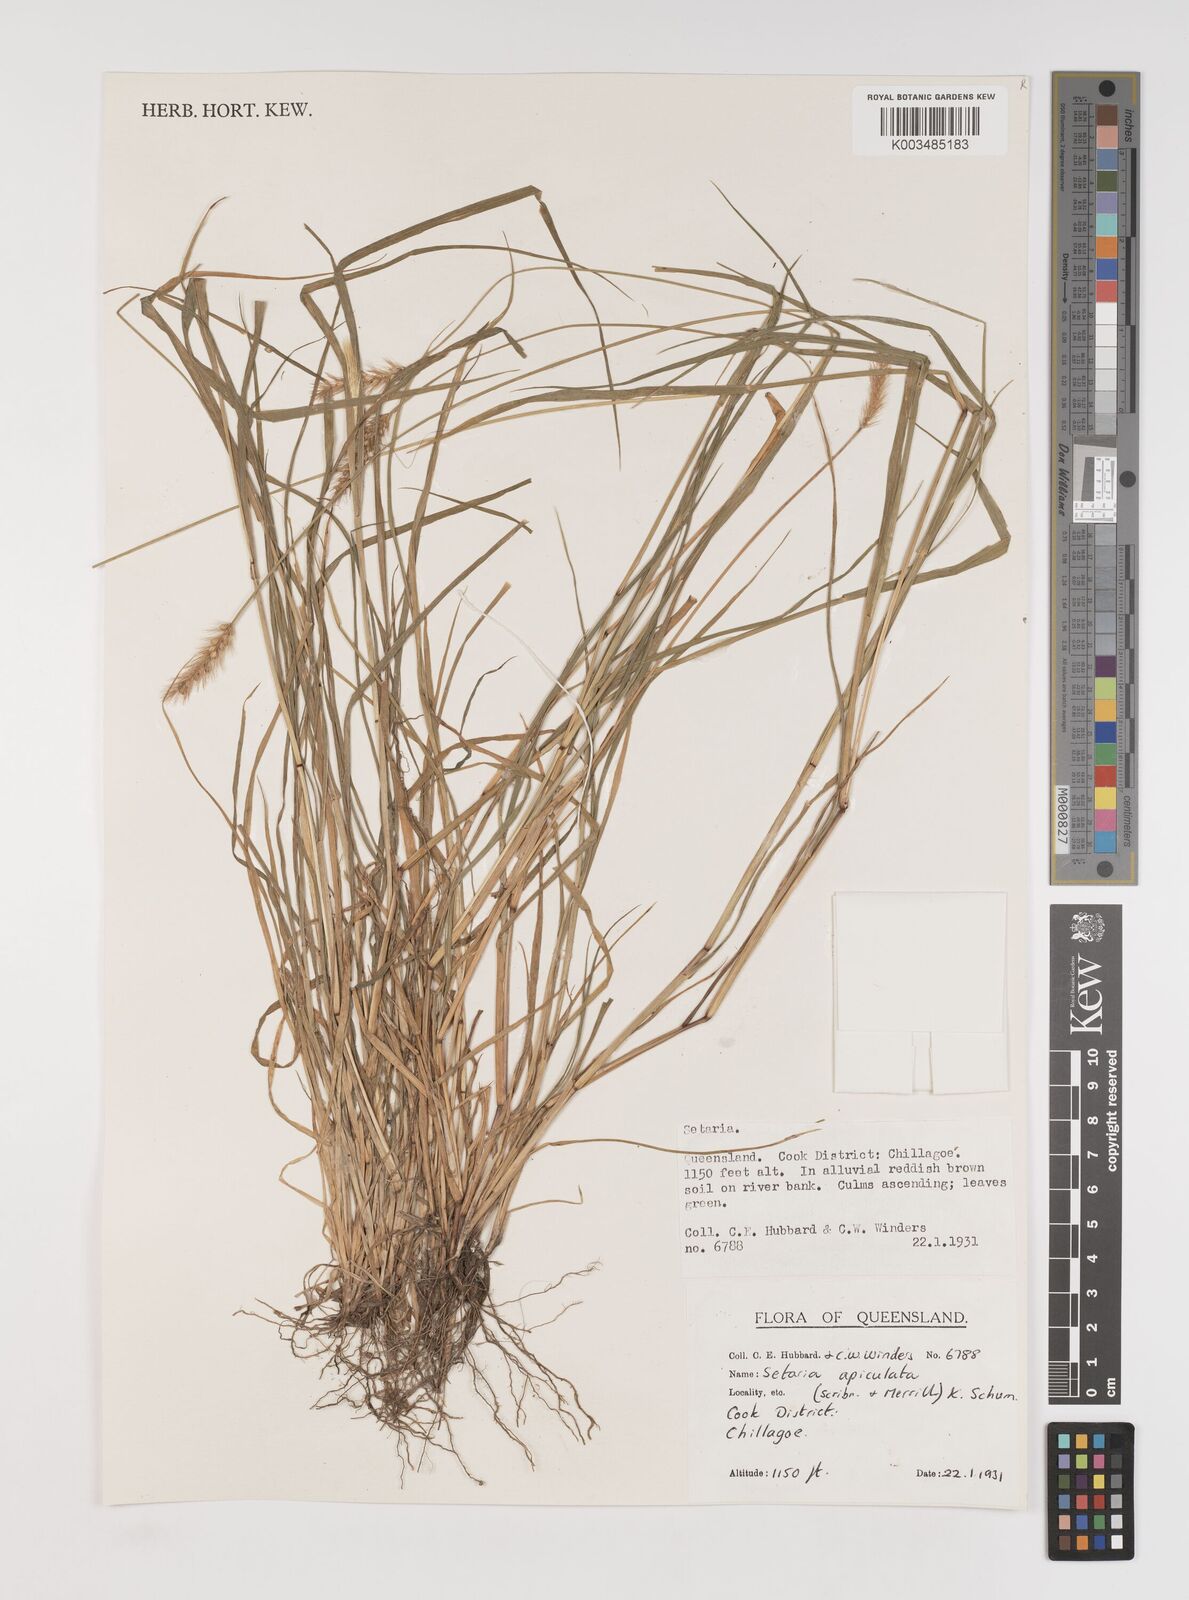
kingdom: Plantae
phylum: Tracheophyta
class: Liliopsida
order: Poales
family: Poaceae
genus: Setaria
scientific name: Setaria apiculata
